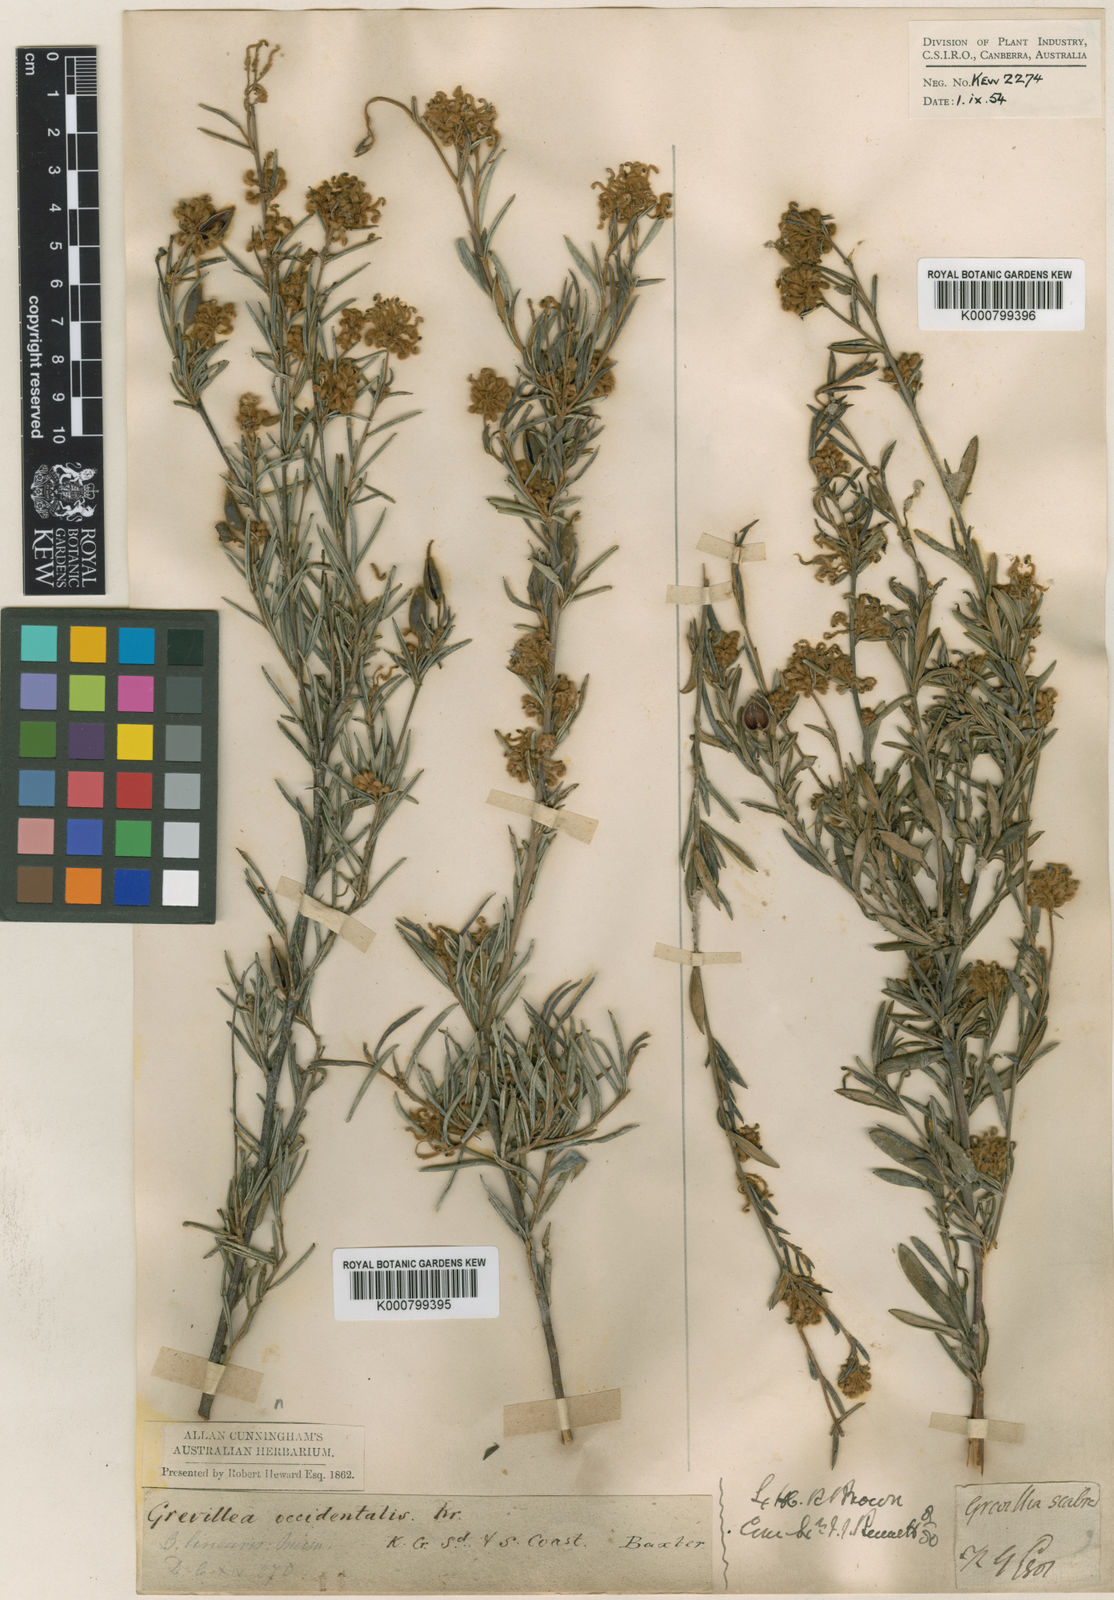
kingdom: Plantae
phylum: Tracheophyta
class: Magnoliopsida
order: Proteales
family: Proteaceae
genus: Grevillea
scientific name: Grevillea occidentalis
